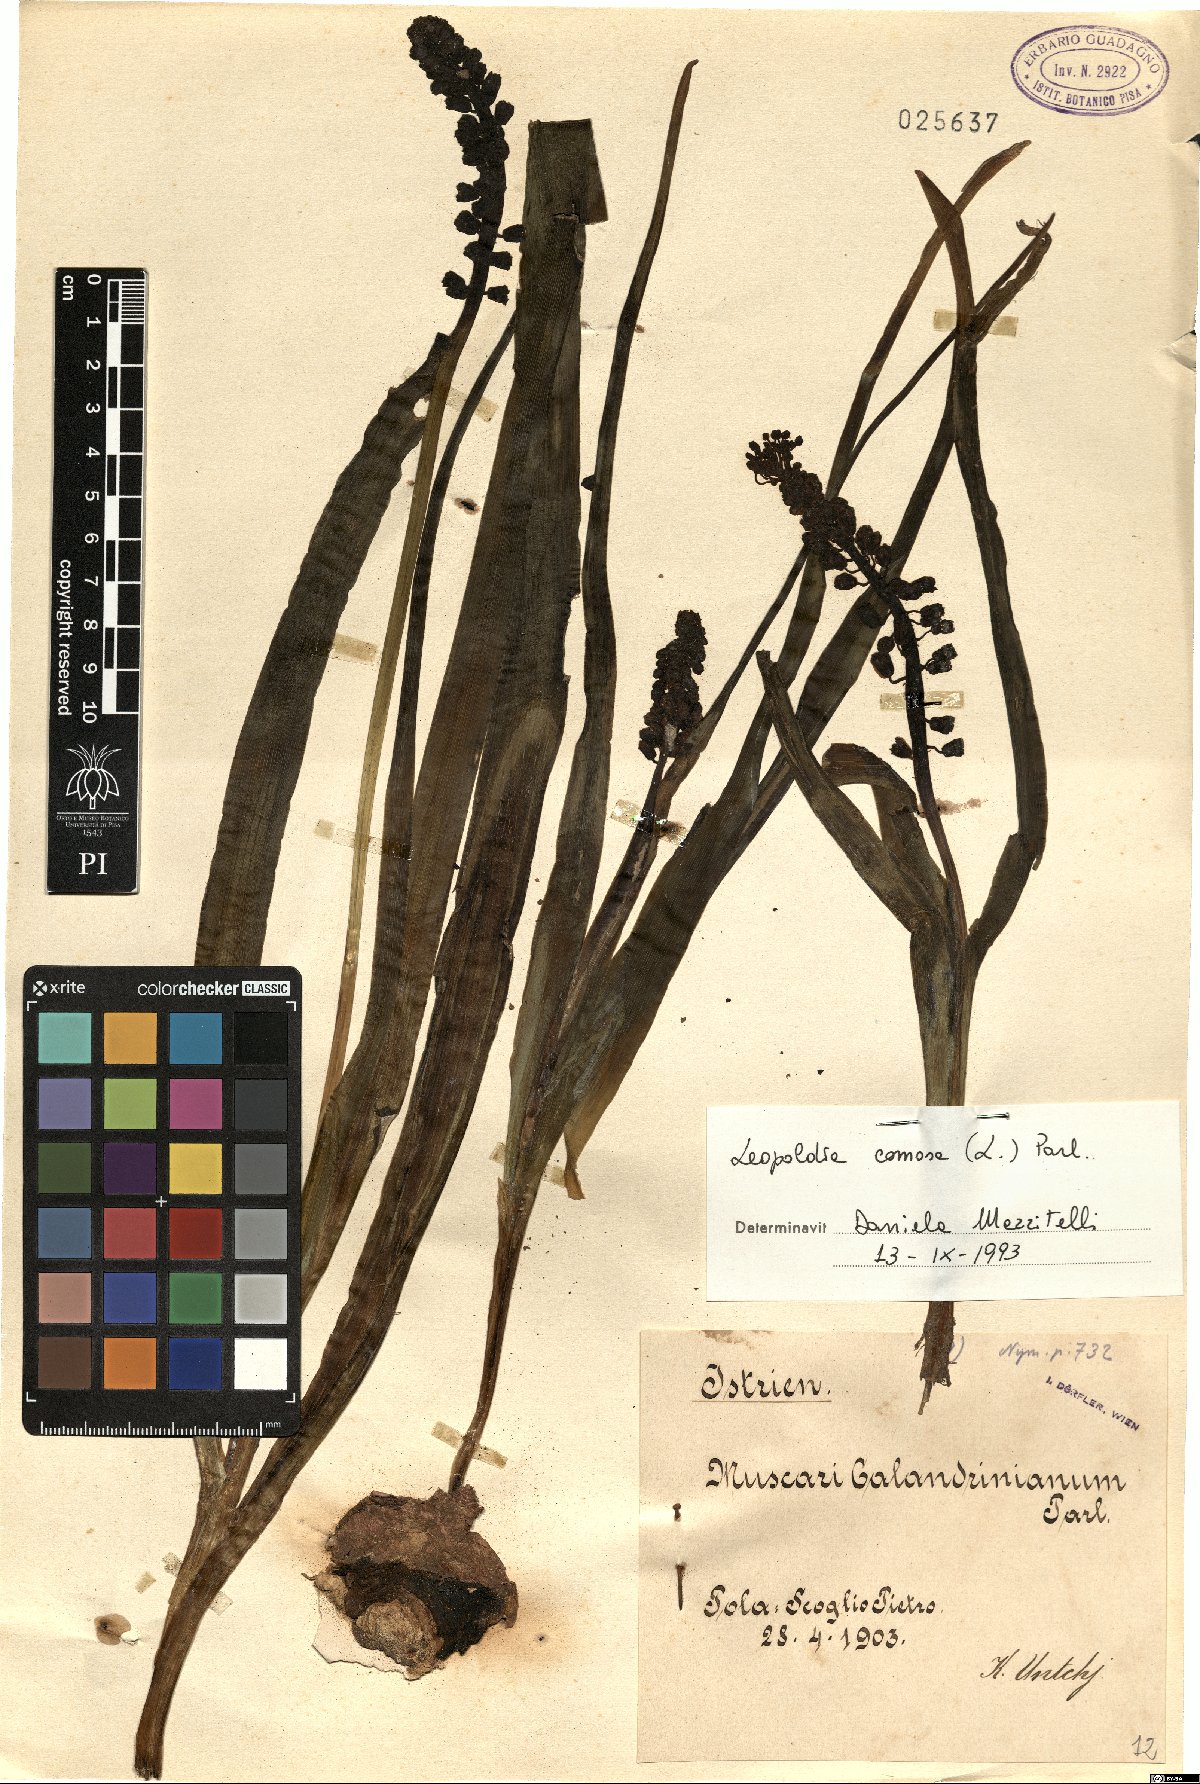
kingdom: Plantae
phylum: Tracheophyta
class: Liliopsida
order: Asparagales
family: Asparagaceae
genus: Muscari
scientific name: Muscari comosum
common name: Tassel hyacinth
